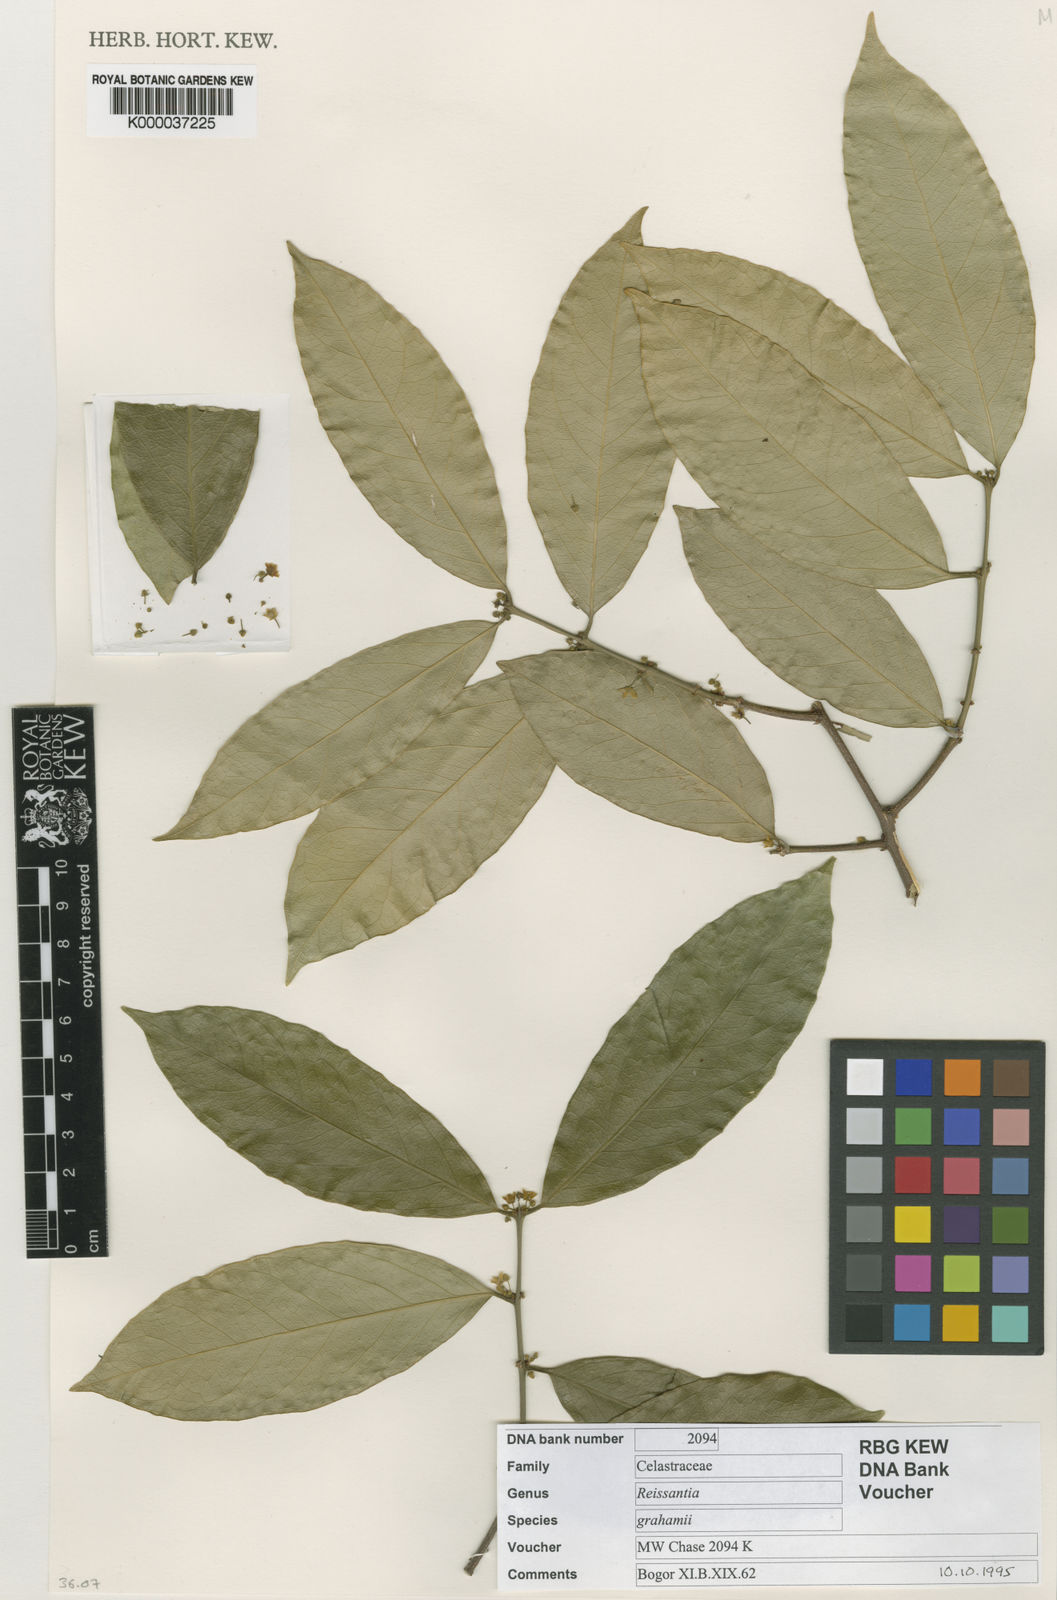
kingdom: Plantae
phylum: Tracheophyta
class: Magnoliopsida
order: Celastrales
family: Celastraceae
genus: Salacia
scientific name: Salacia
